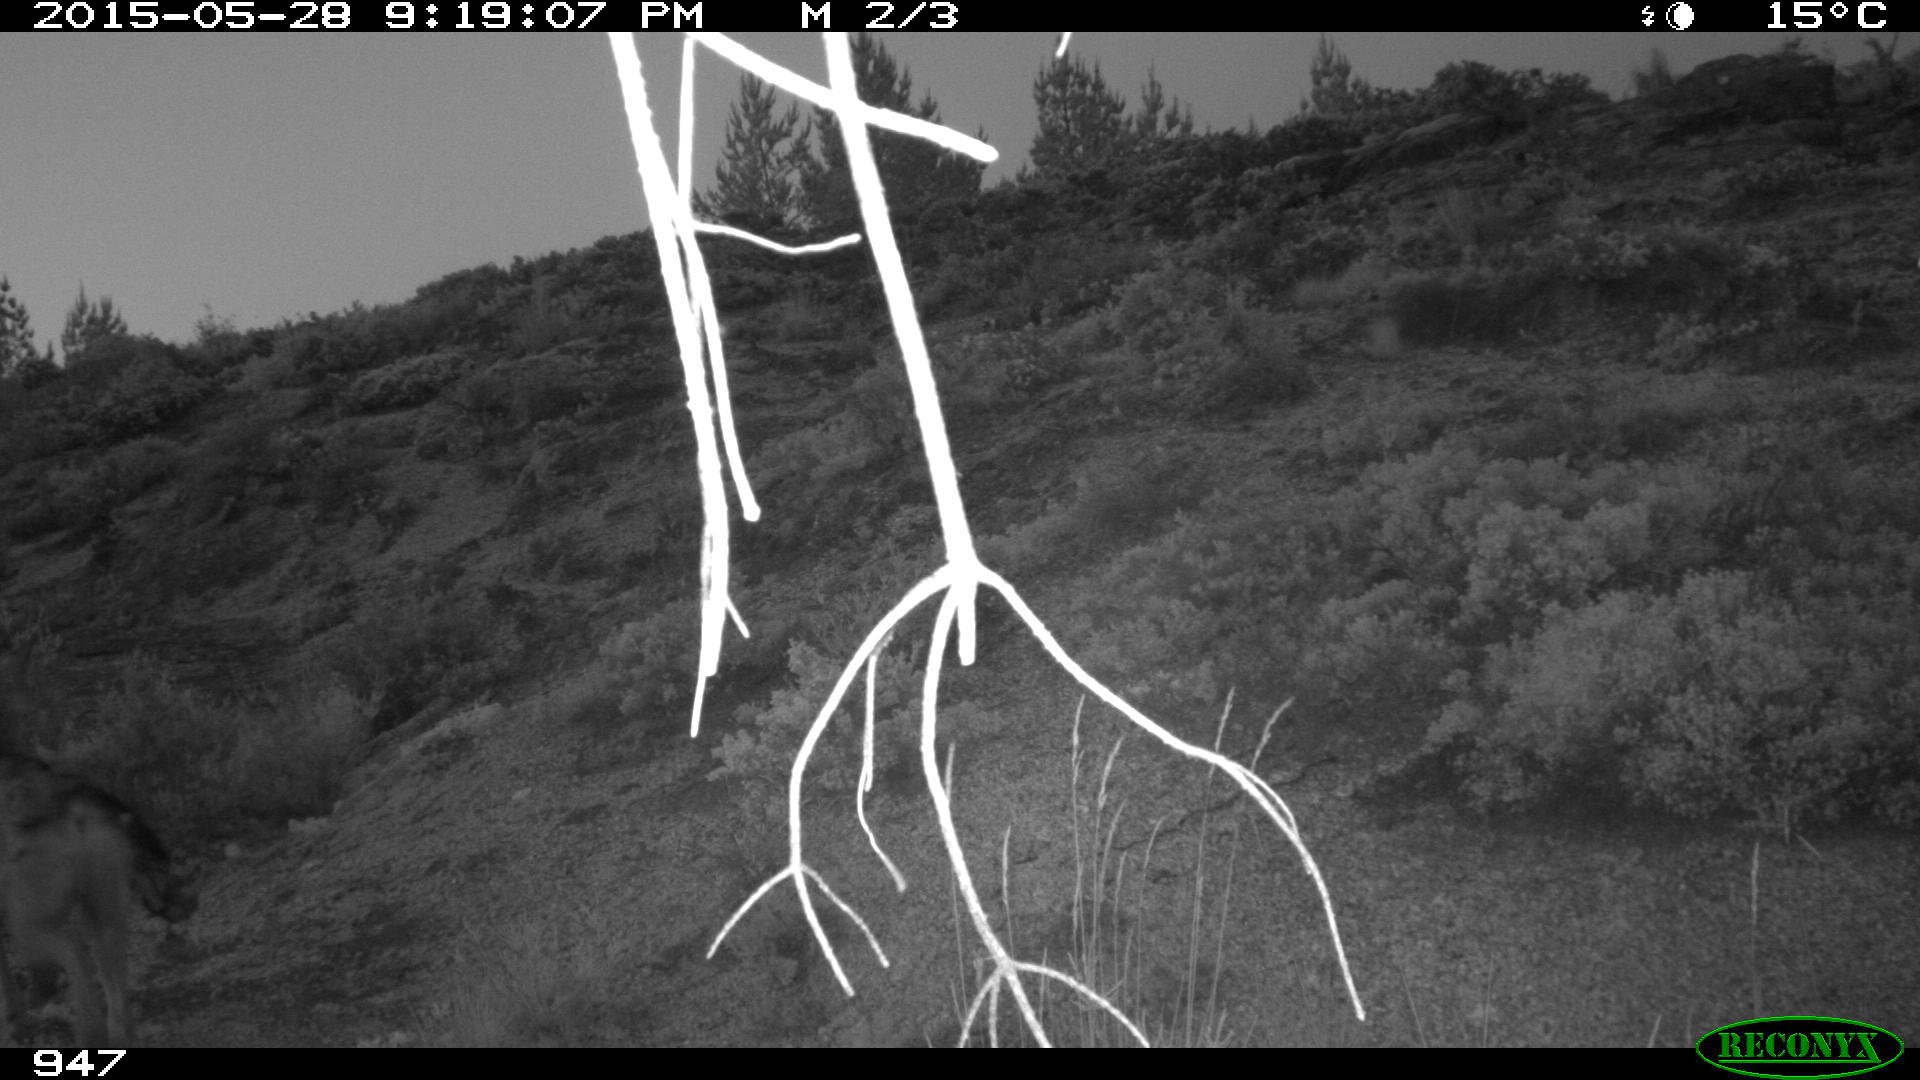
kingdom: Animalia
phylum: Chordata
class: Mammalia
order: Carnivora
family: Canidae
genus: Canis
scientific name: Canis lupus
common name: Gray wolf
